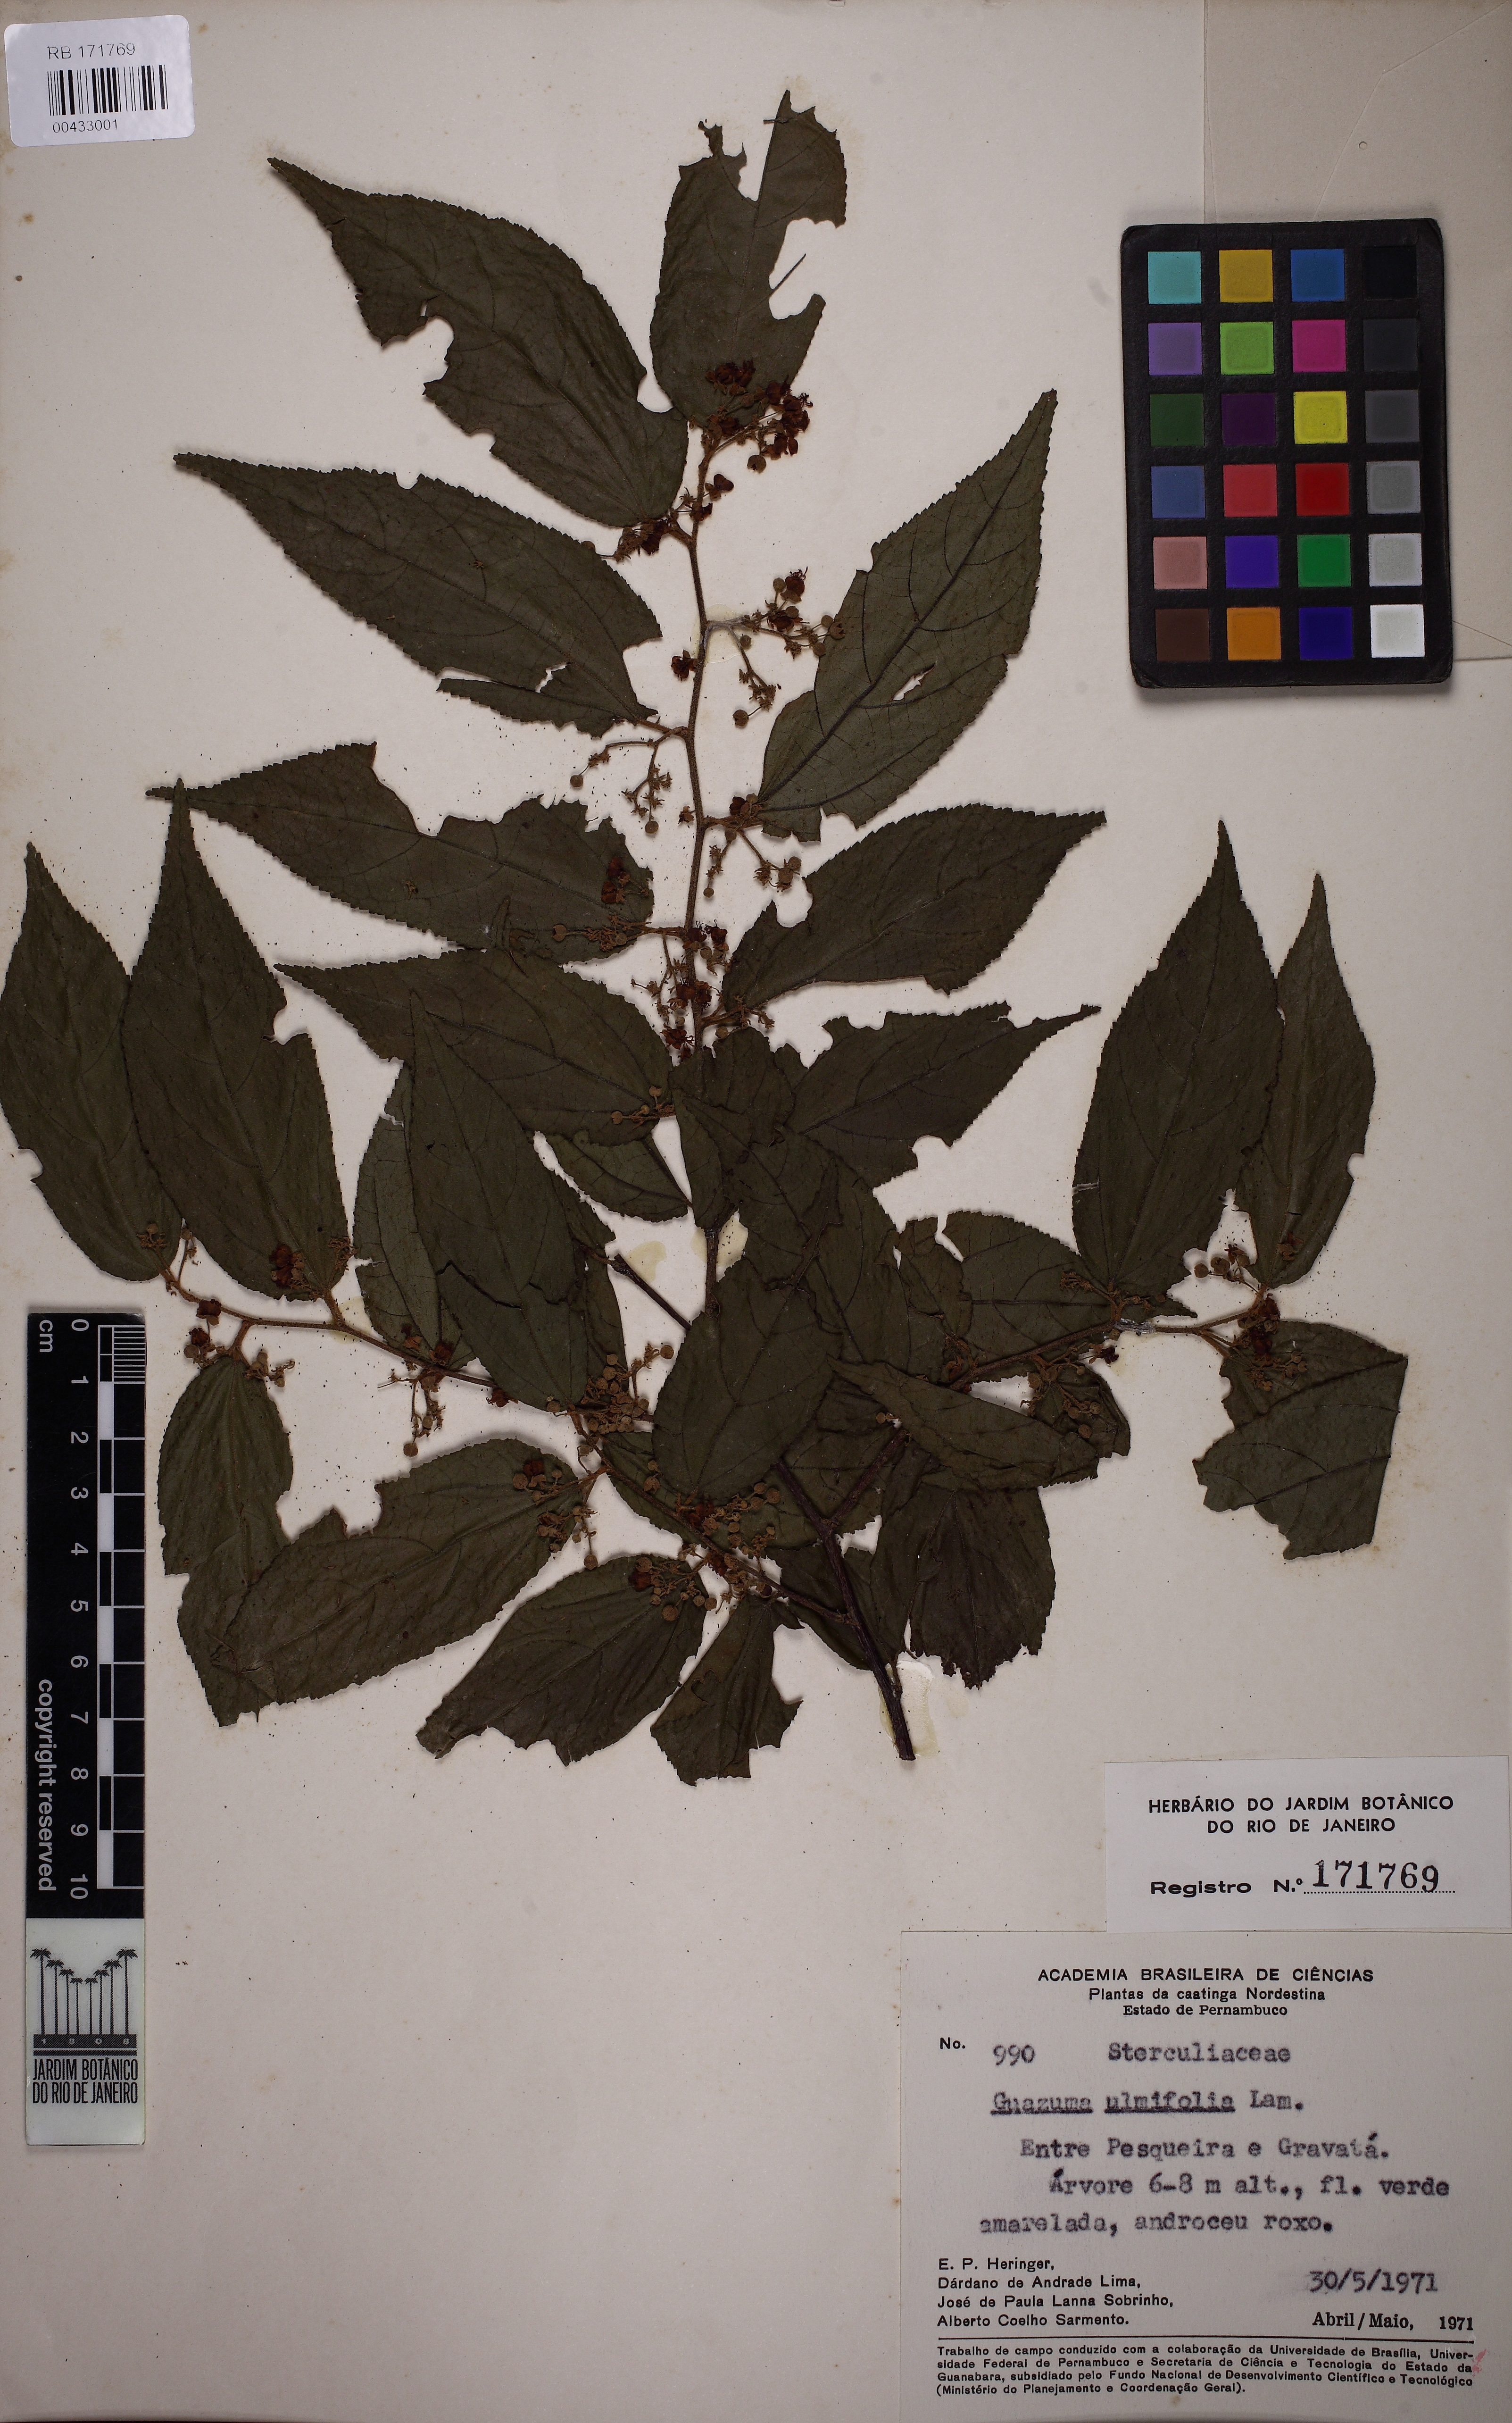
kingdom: Plantae
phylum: Tracheophyta
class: Magnoliopsida
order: Malvales
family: Malvaceae
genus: Guazuma
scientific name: Guazuma ulmifolia
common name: Bastard-cedar
